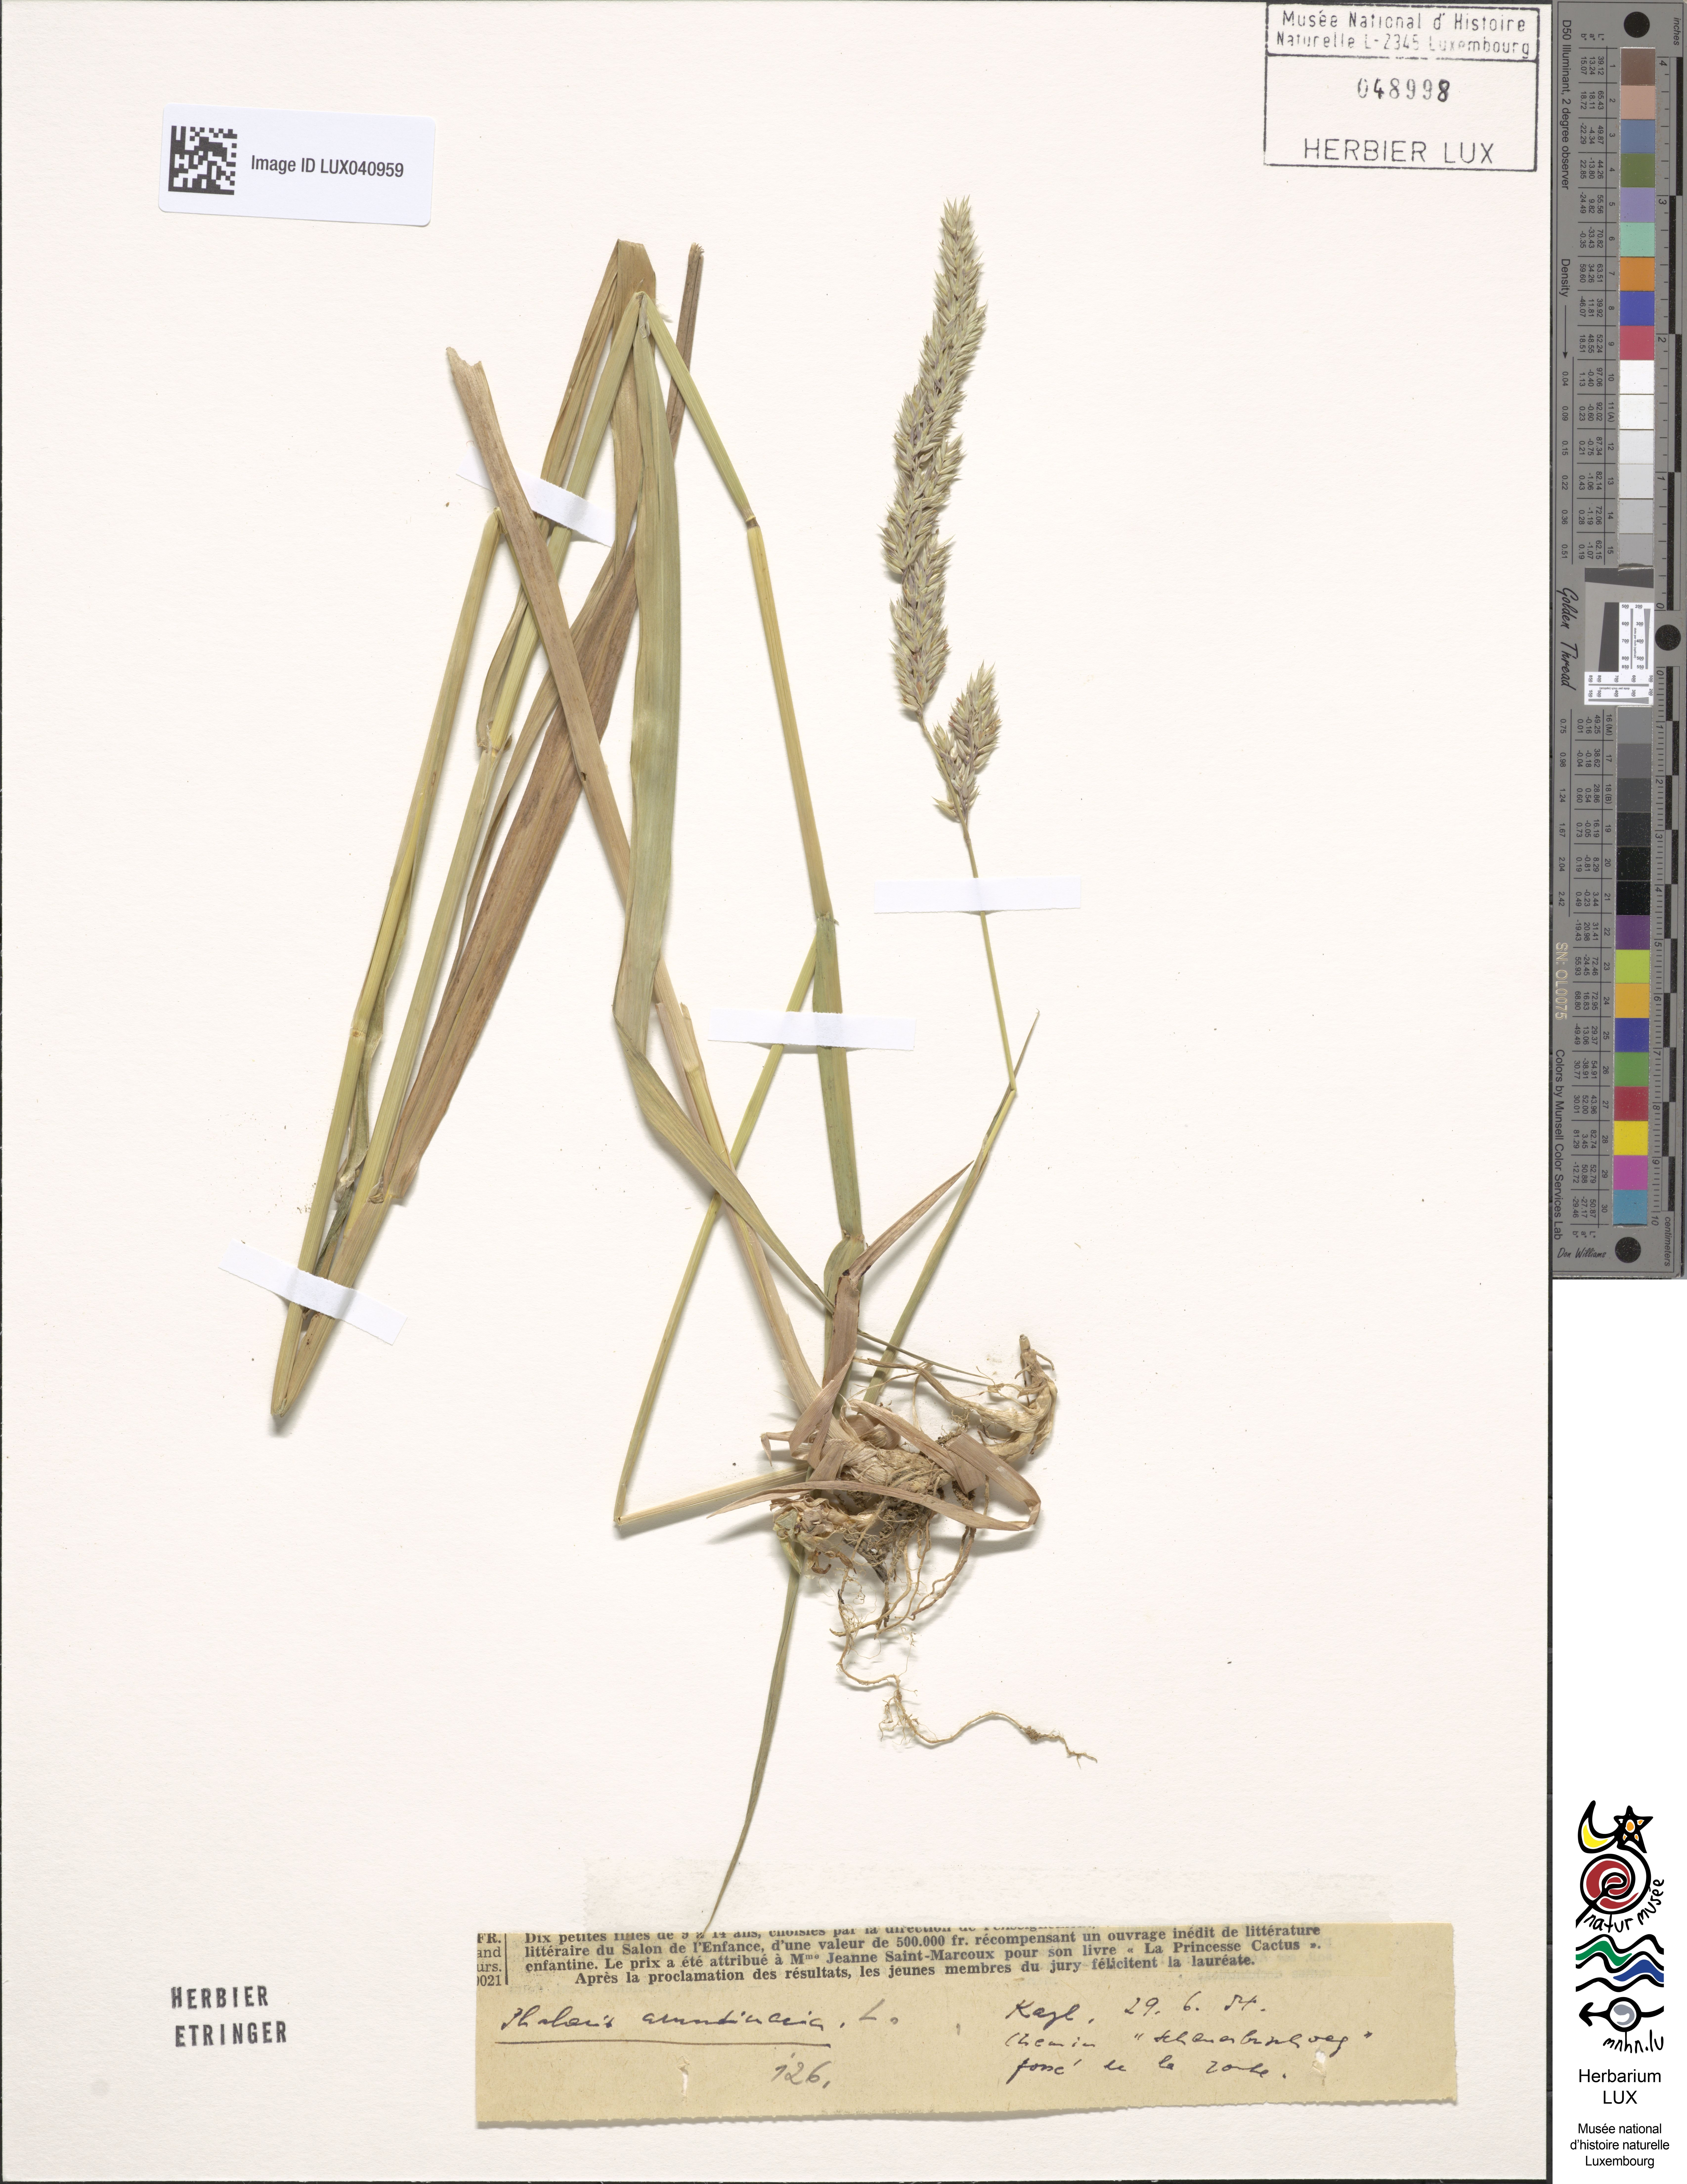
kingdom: Plantae
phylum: Tracheophyta
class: Liliopsida
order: Poales
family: Poaceae
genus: Phalaris
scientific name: Phalaris arundinacea
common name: Reed canary-grass
